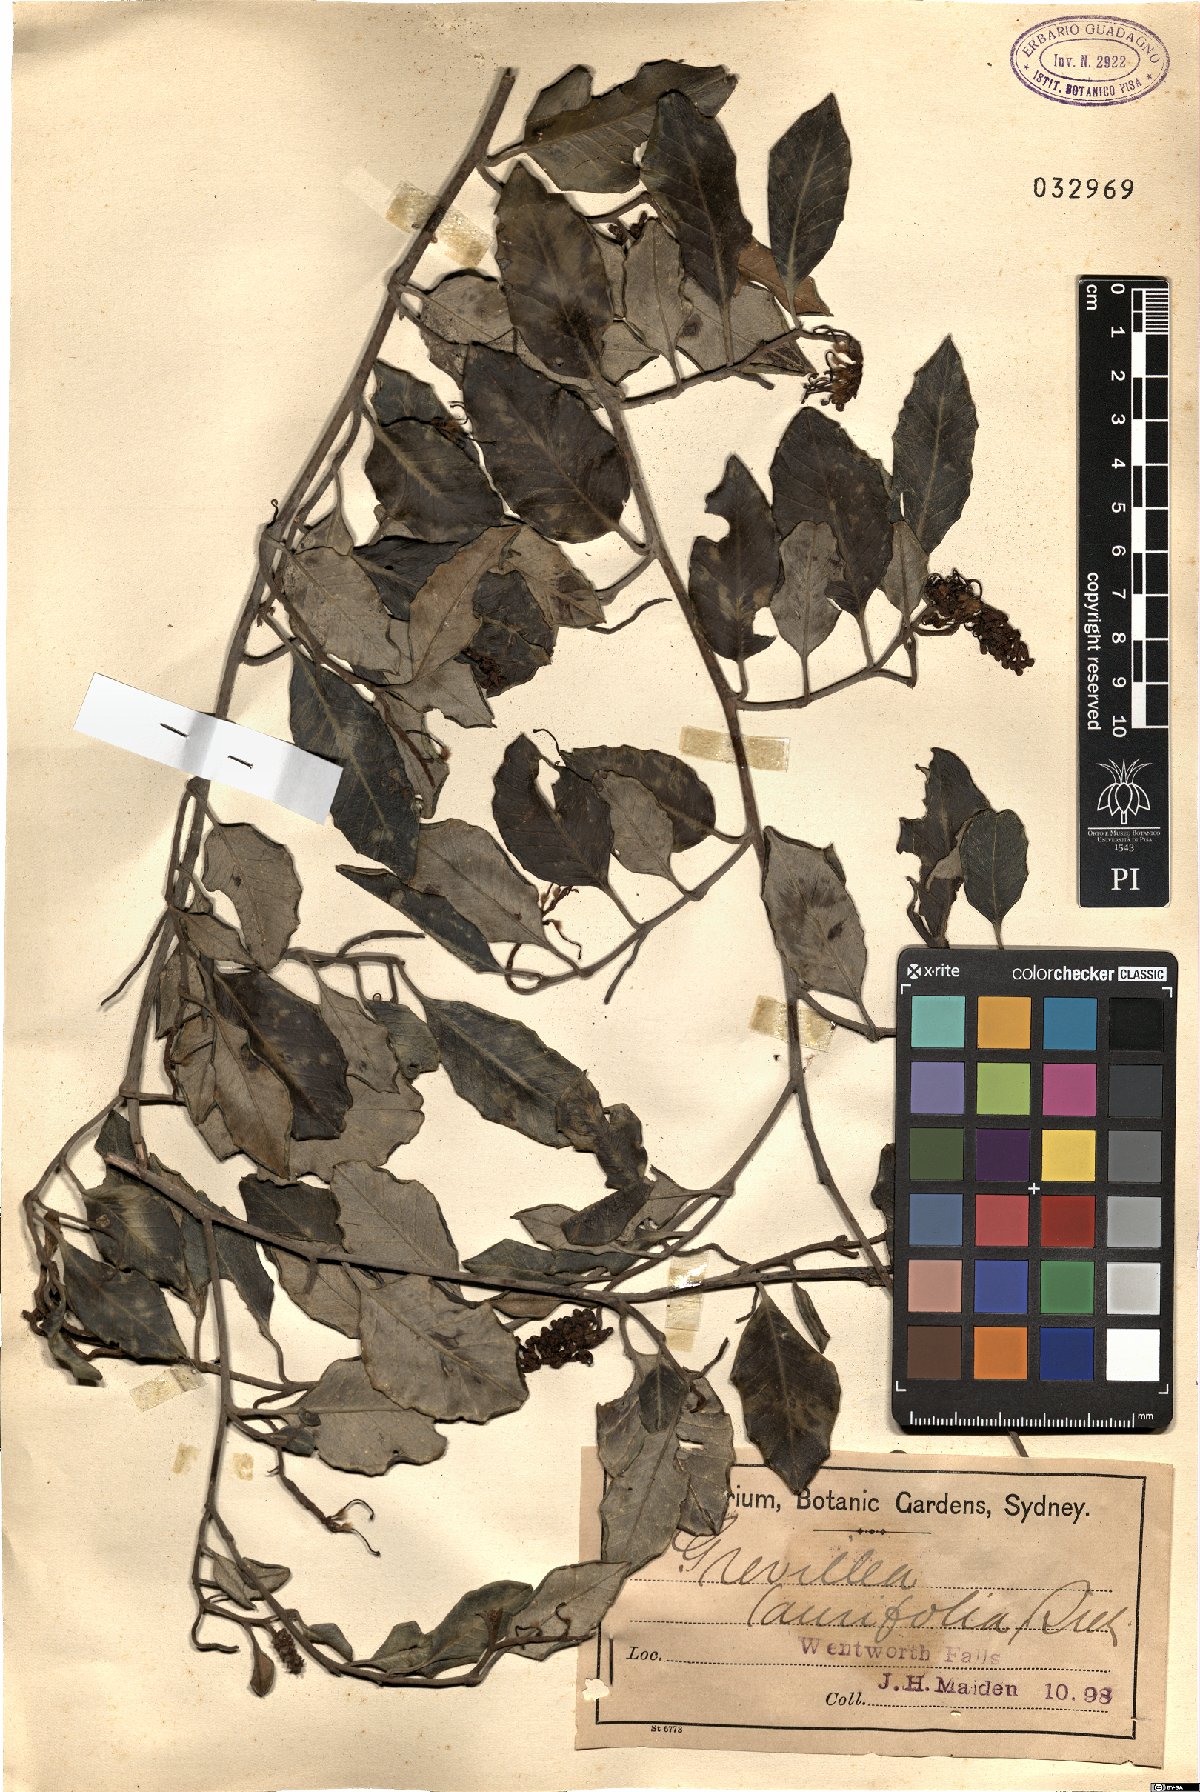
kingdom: Plantae
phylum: Tracheophyta
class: Magnoliopsida
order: Proteales
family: Proteaceae
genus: Grevillea
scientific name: Grevillea laurifolia
